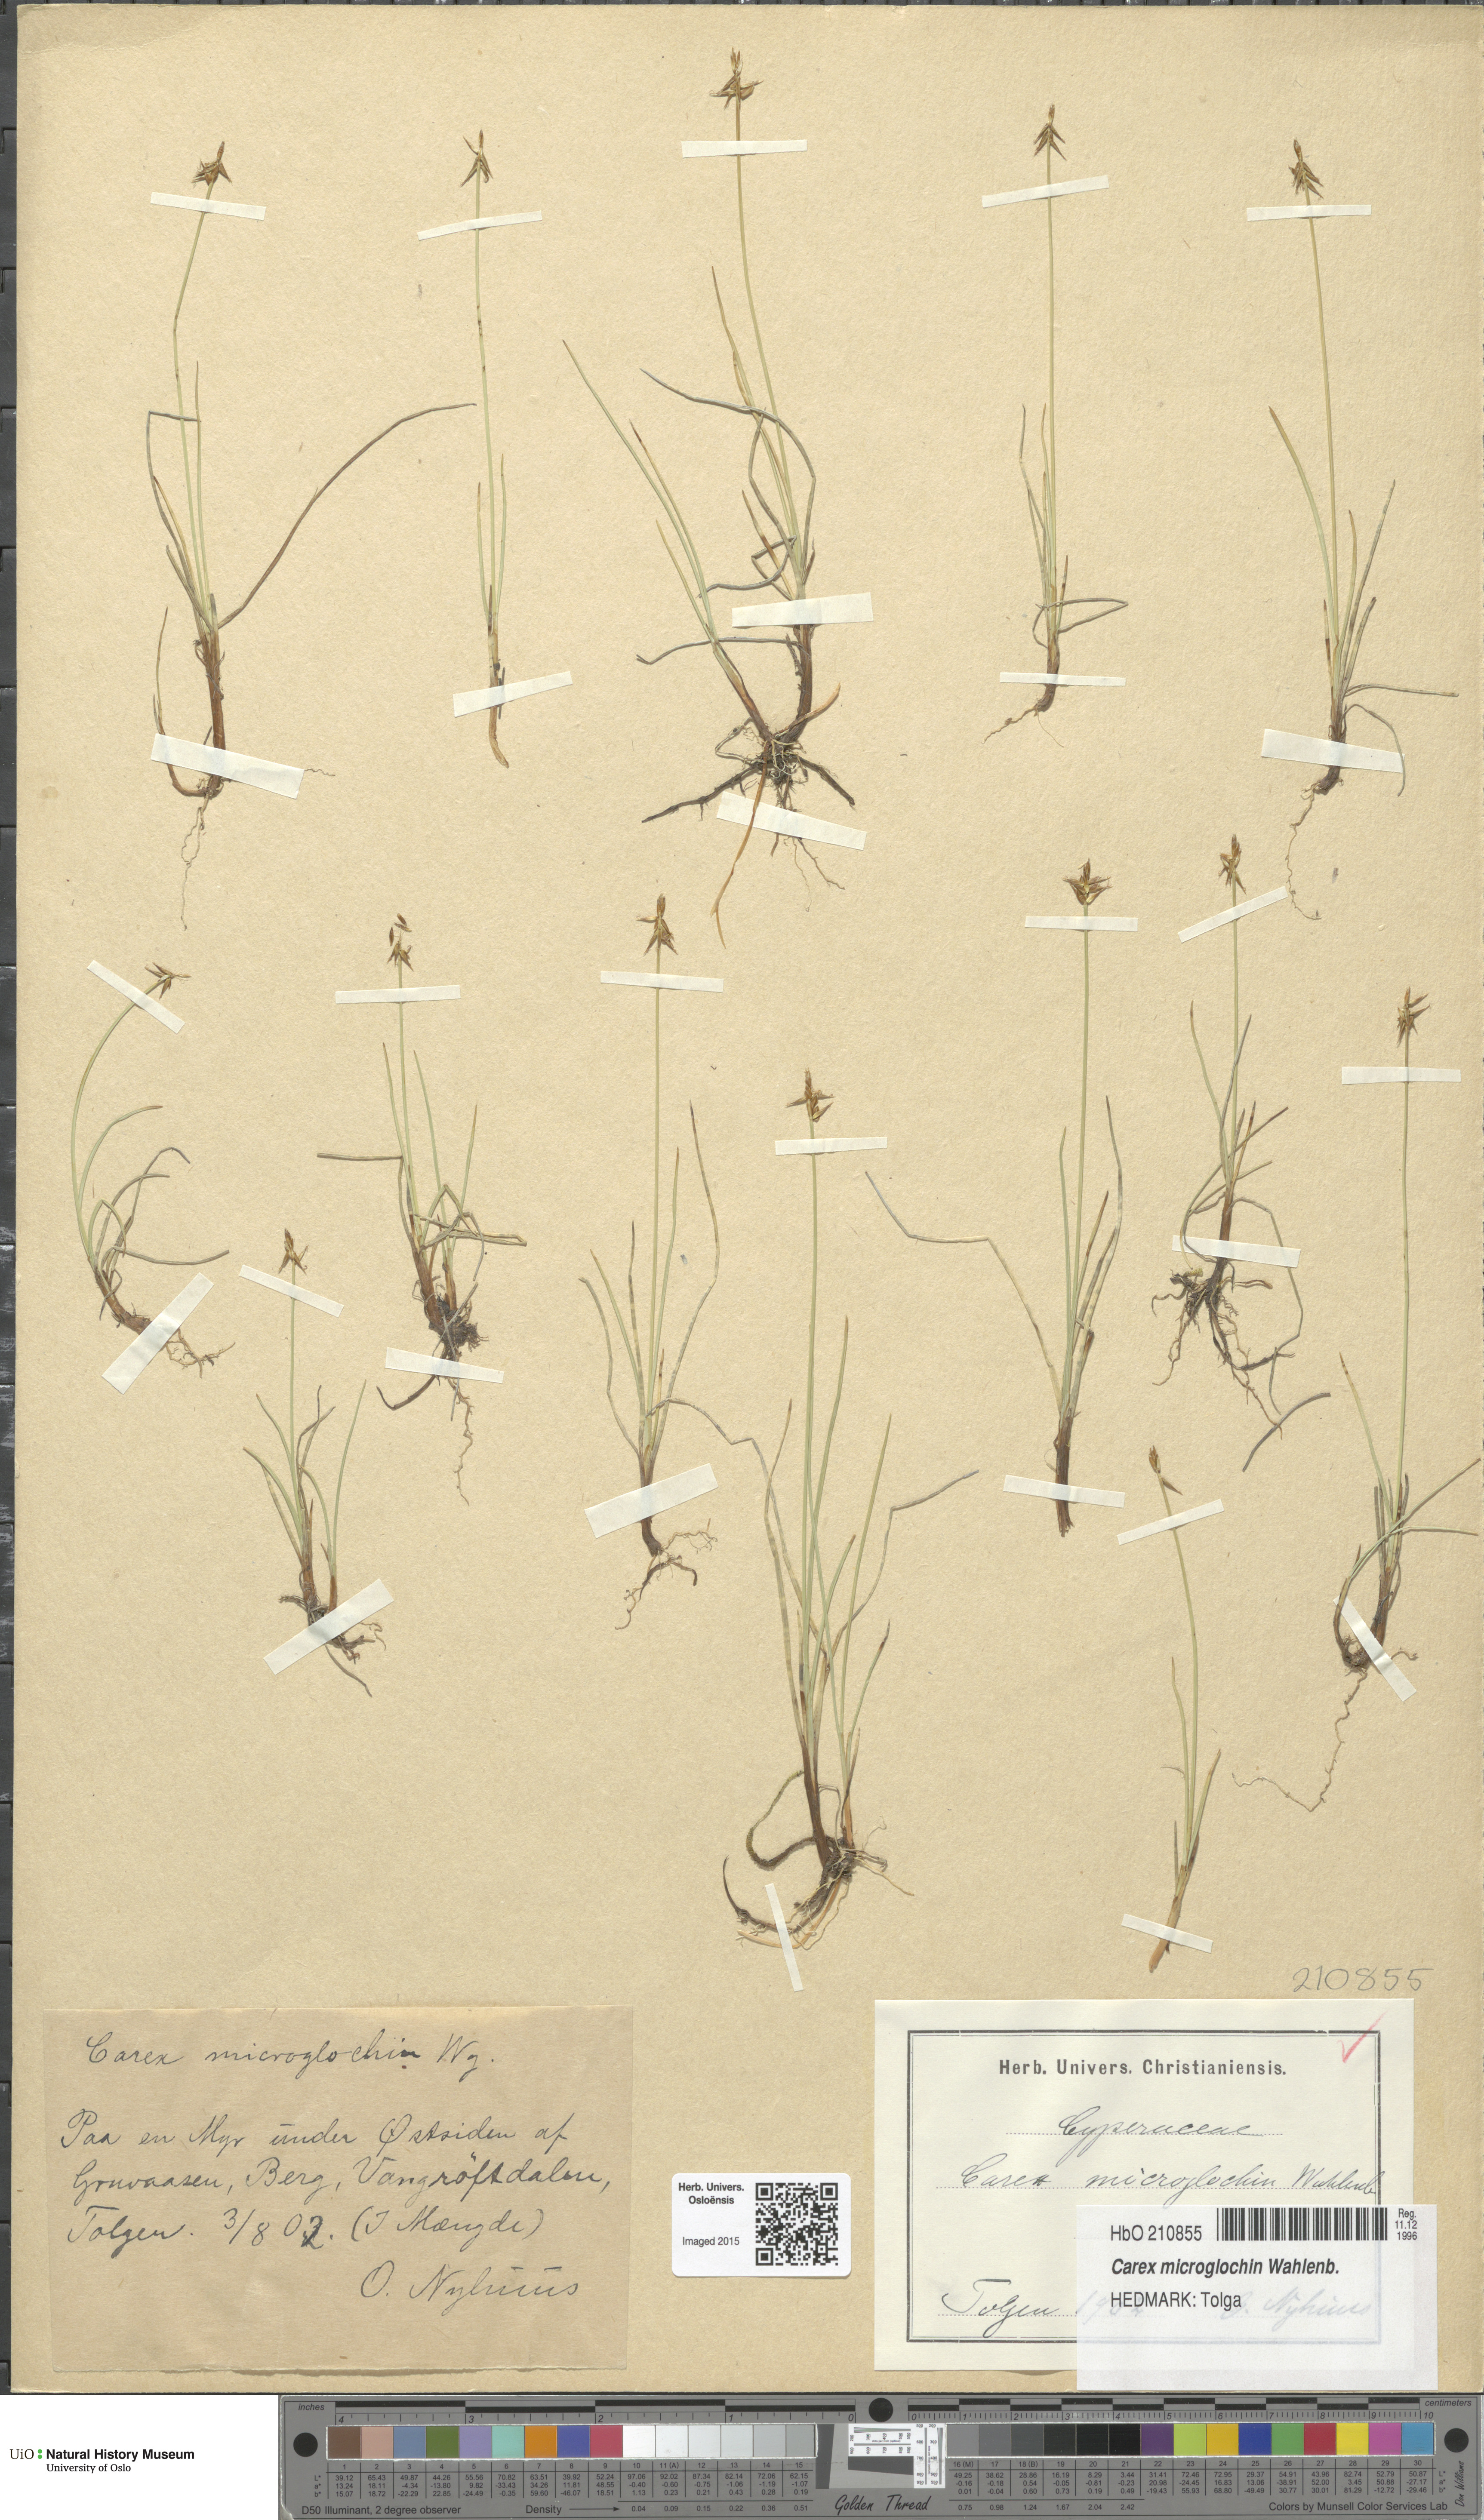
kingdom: Plantae
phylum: Tracheophyta
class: Liliopsida
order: Poales
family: Cyperaceae
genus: Carex
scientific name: Carex microglochin
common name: Bristle sedge
